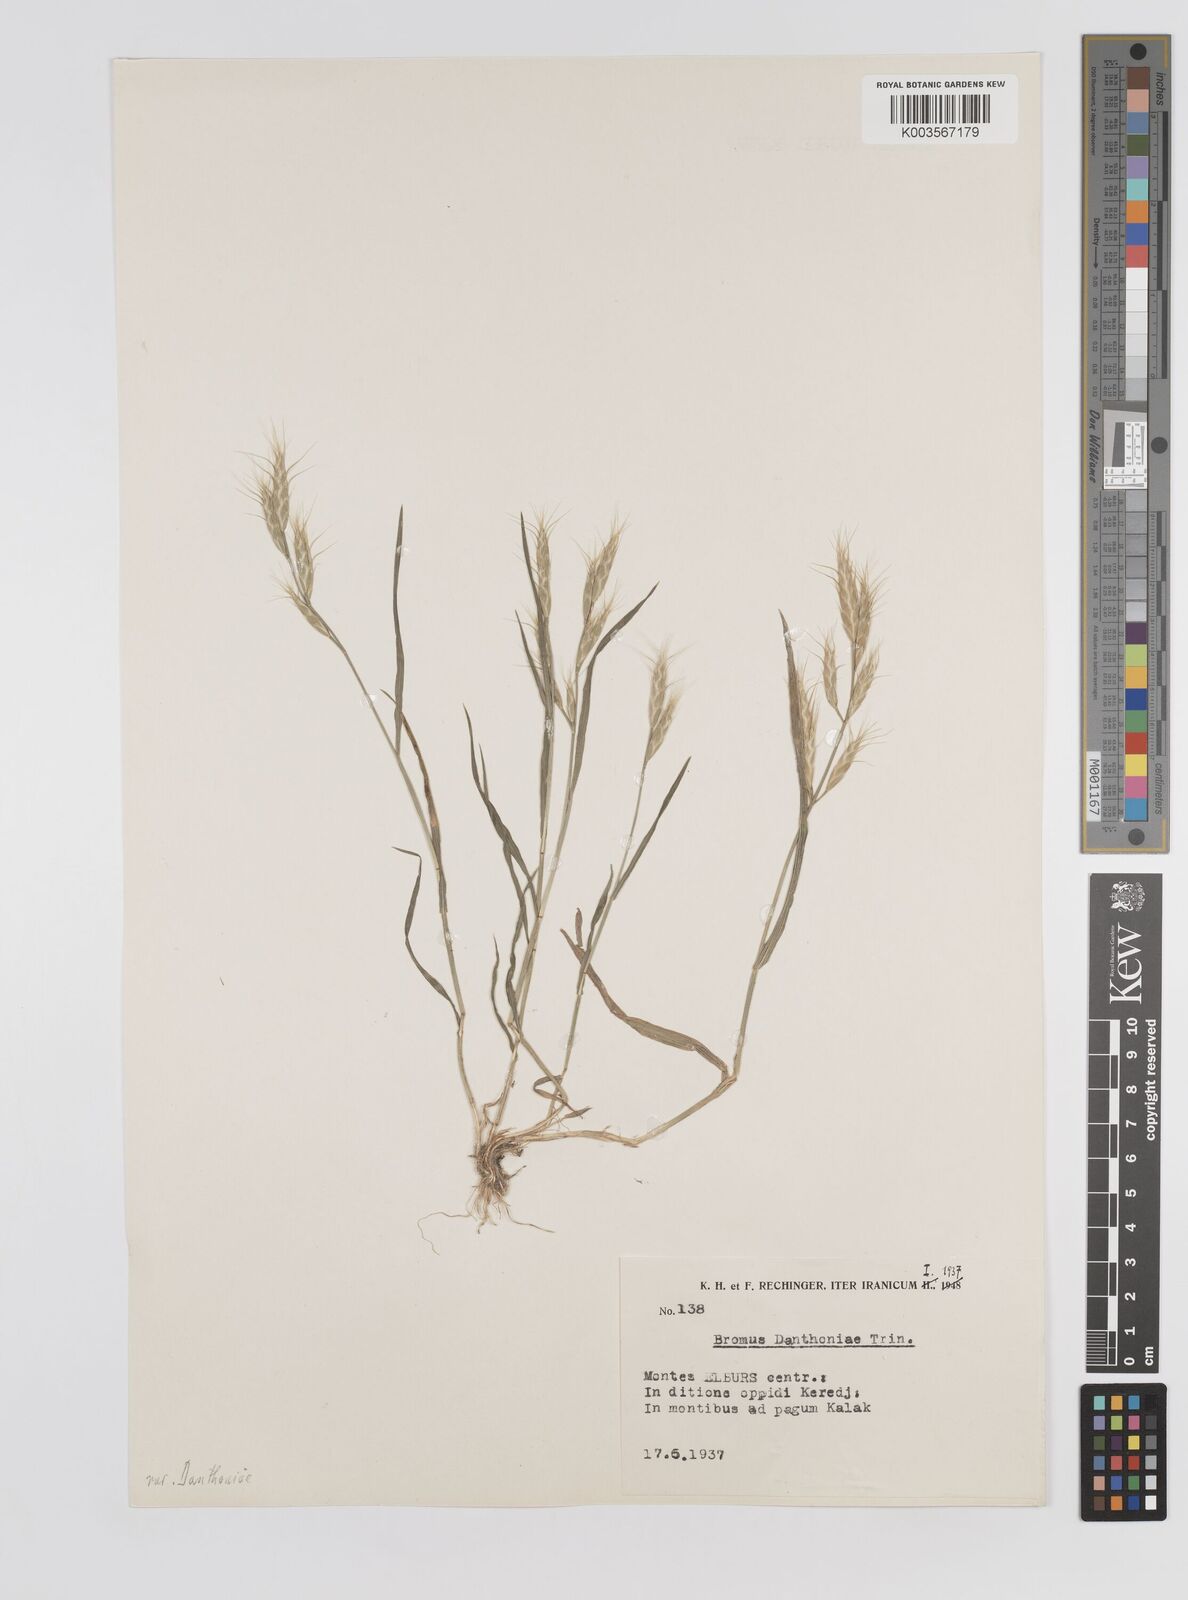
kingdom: Plantae
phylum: Tracheophyta
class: Liliopsida
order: Poales
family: Poaceae
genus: Bromus
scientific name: Bromus danthoniae
